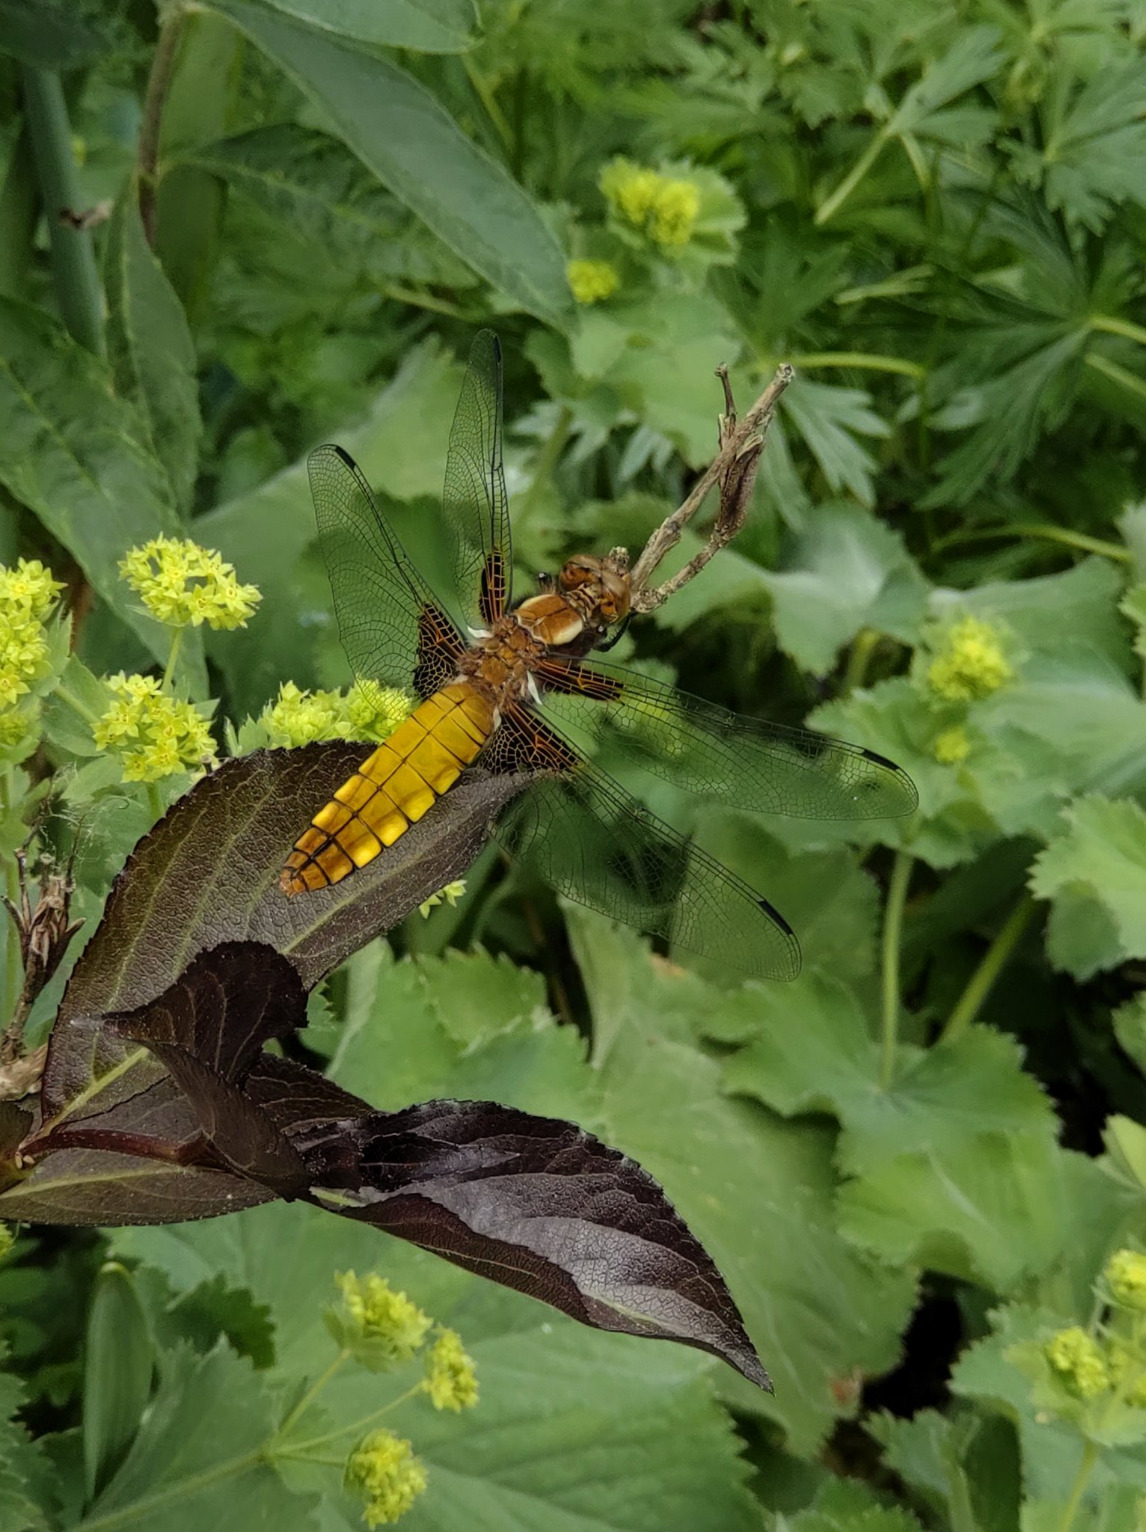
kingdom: Animalia
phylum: Arthropoda
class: Insecta
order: Odonata
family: Libellulidae
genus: Libellula
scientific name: Libellula depressa
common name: Blå libel
